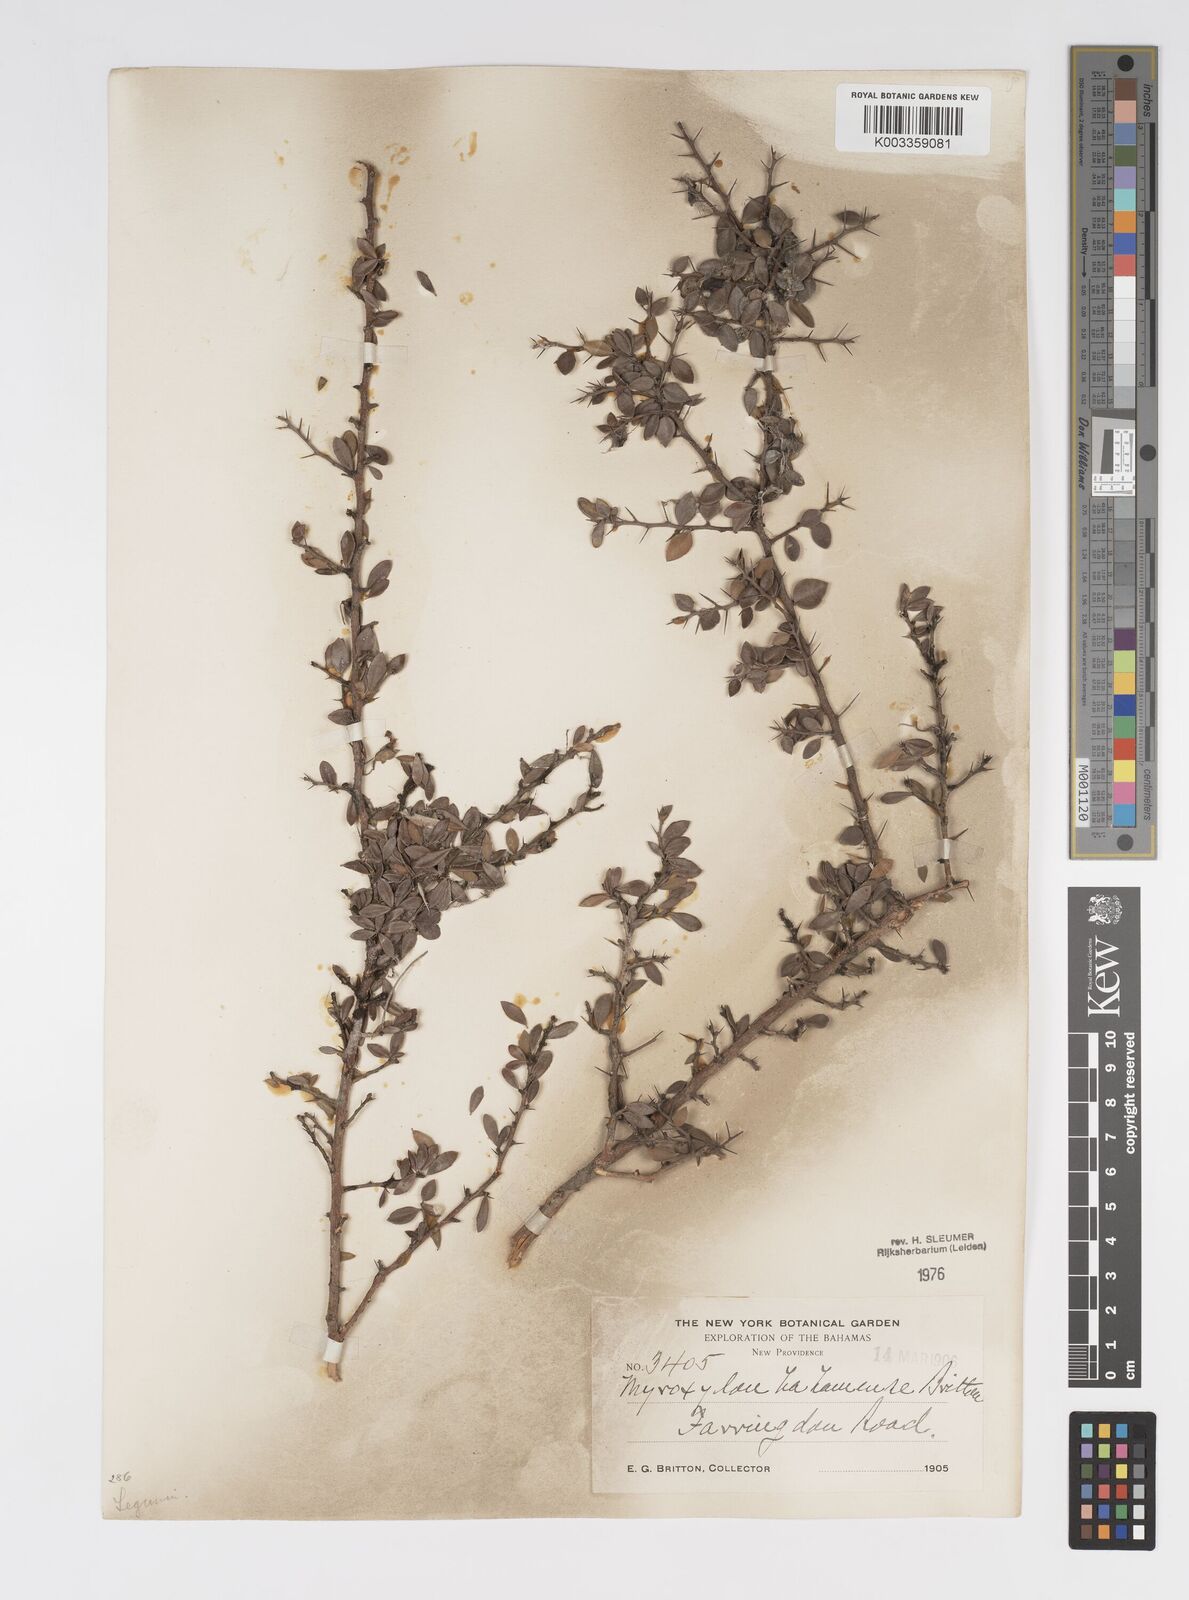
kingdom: Plantae
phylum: Tracheophyta
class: Magnoliopsida
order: Malpighiales
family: Salicaceae
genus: Xylosma
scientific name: Xylosma bahamense
